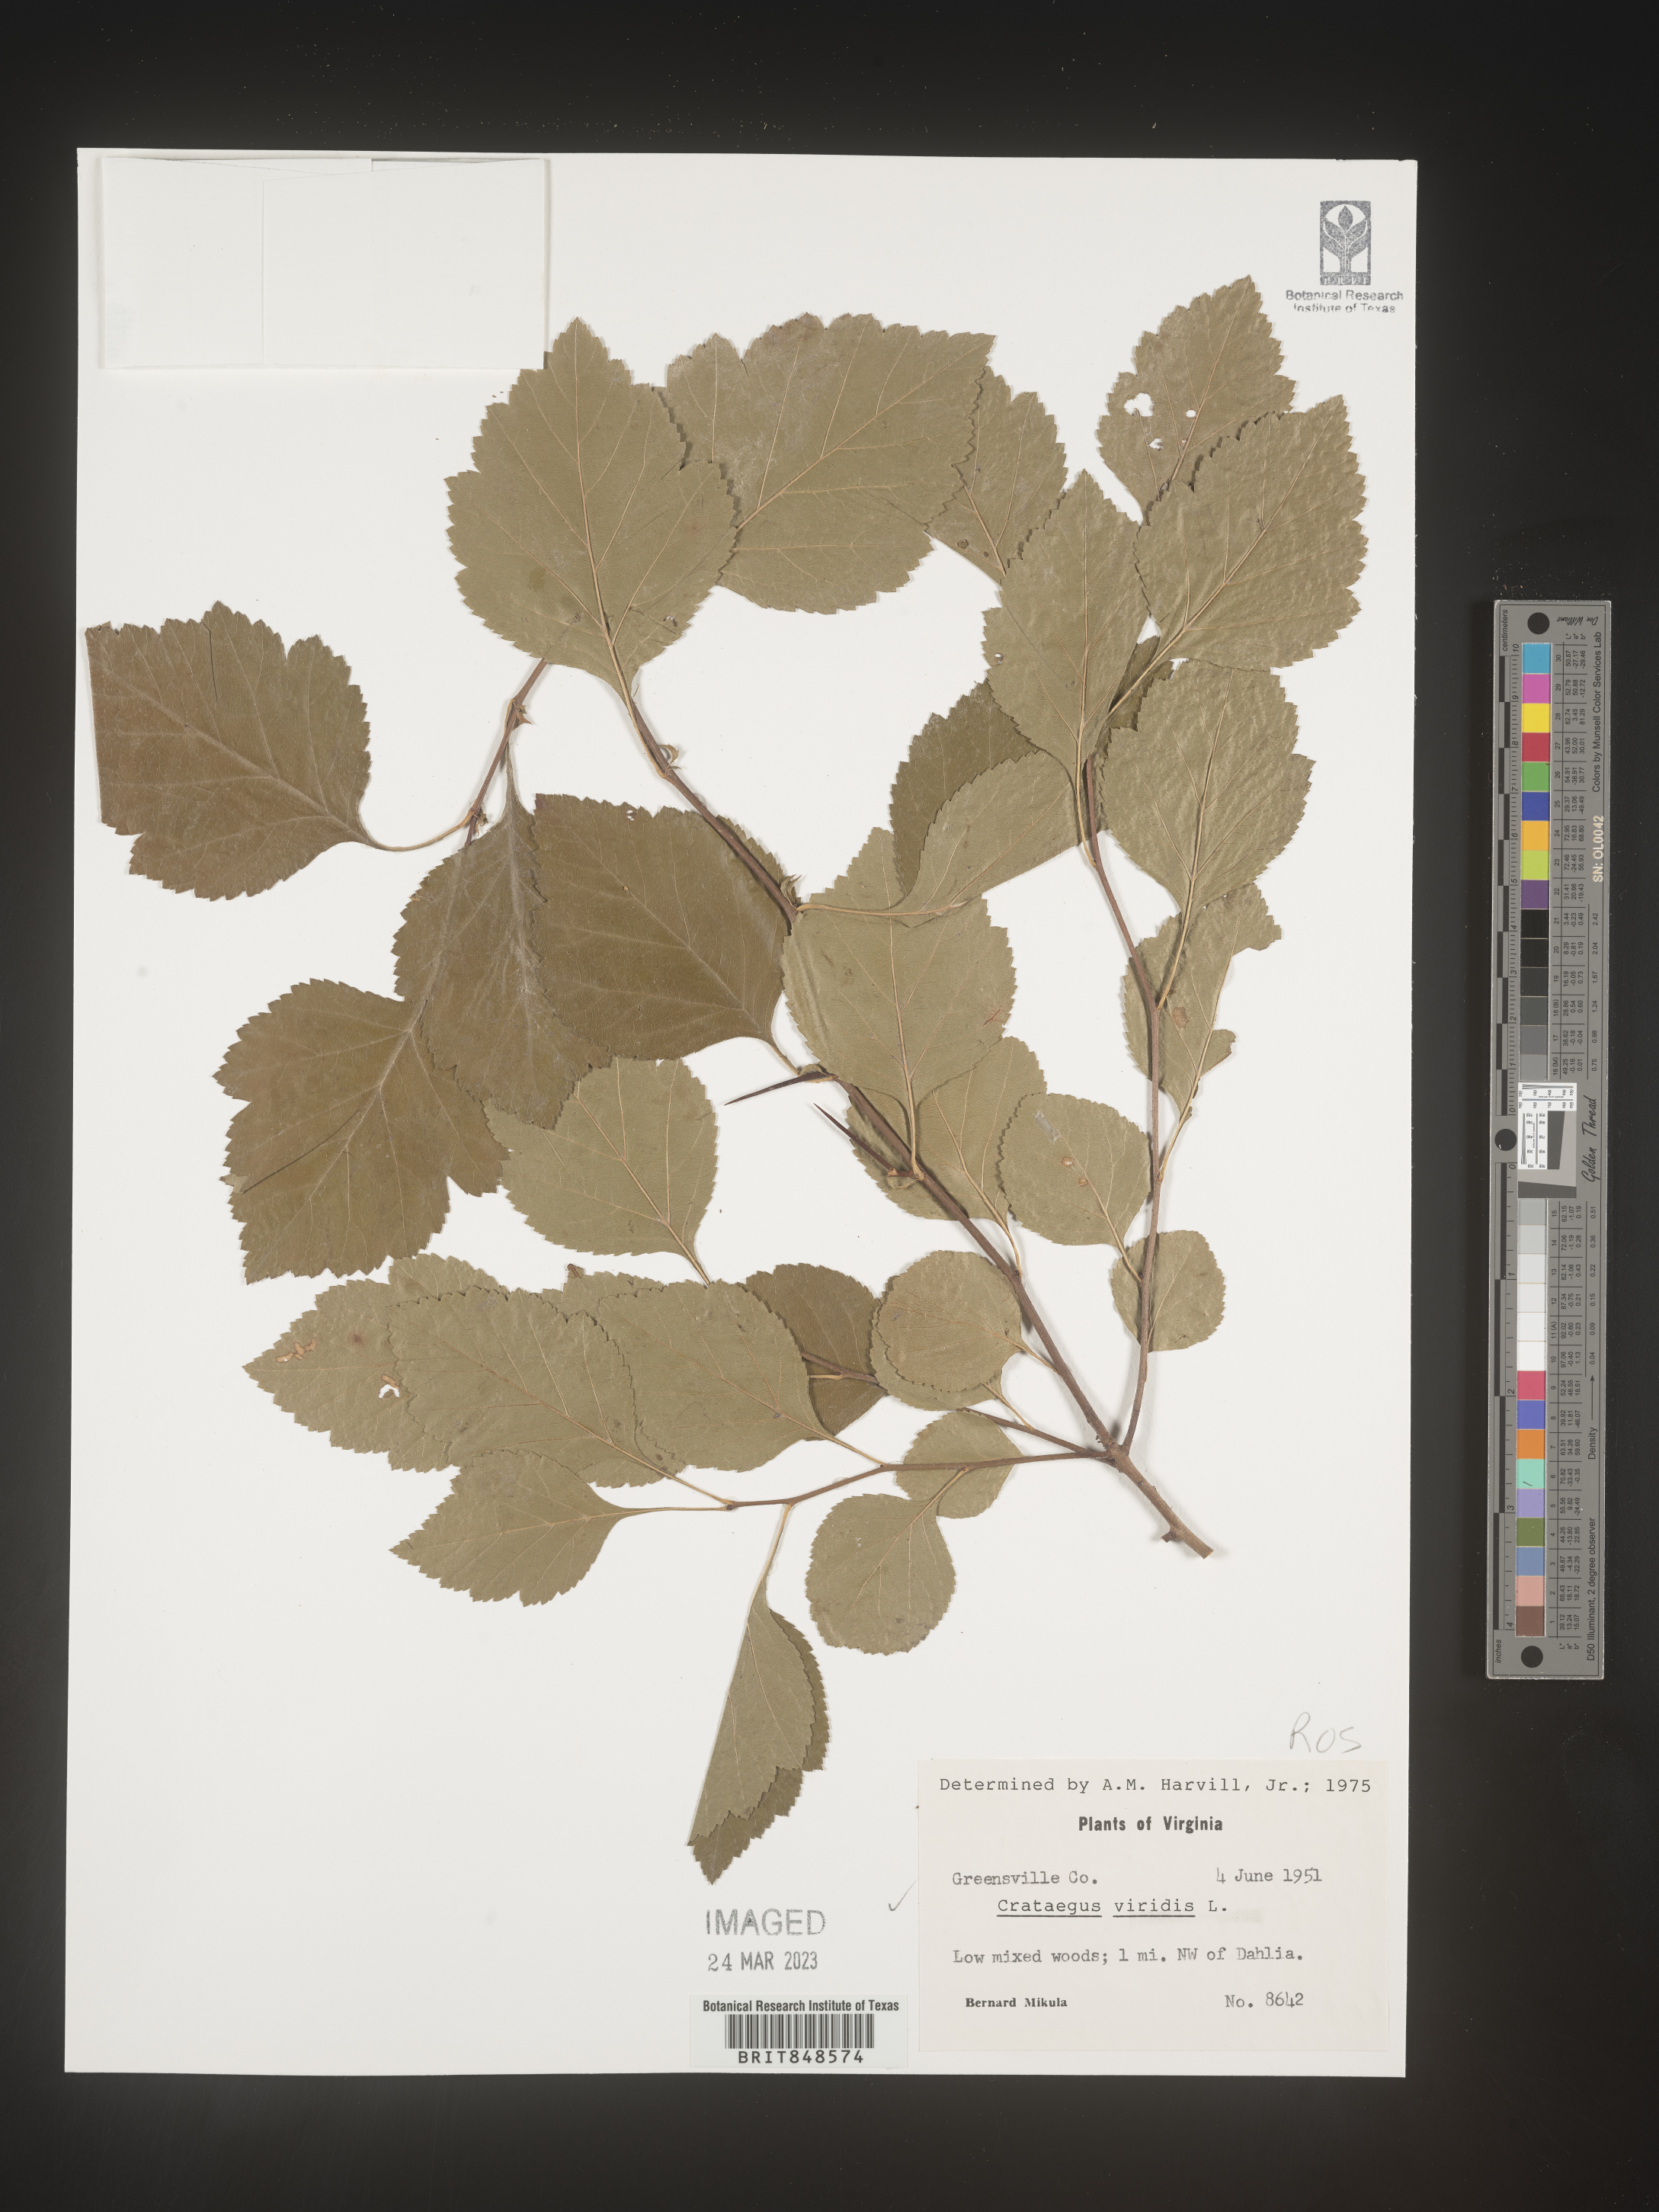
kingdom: Plantae
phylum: Tracheophyta
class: Magnoliopsida
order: Rosales
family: Rosaceae
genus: Crataegus
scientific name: Crataegus viridis
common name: Southernthorn
